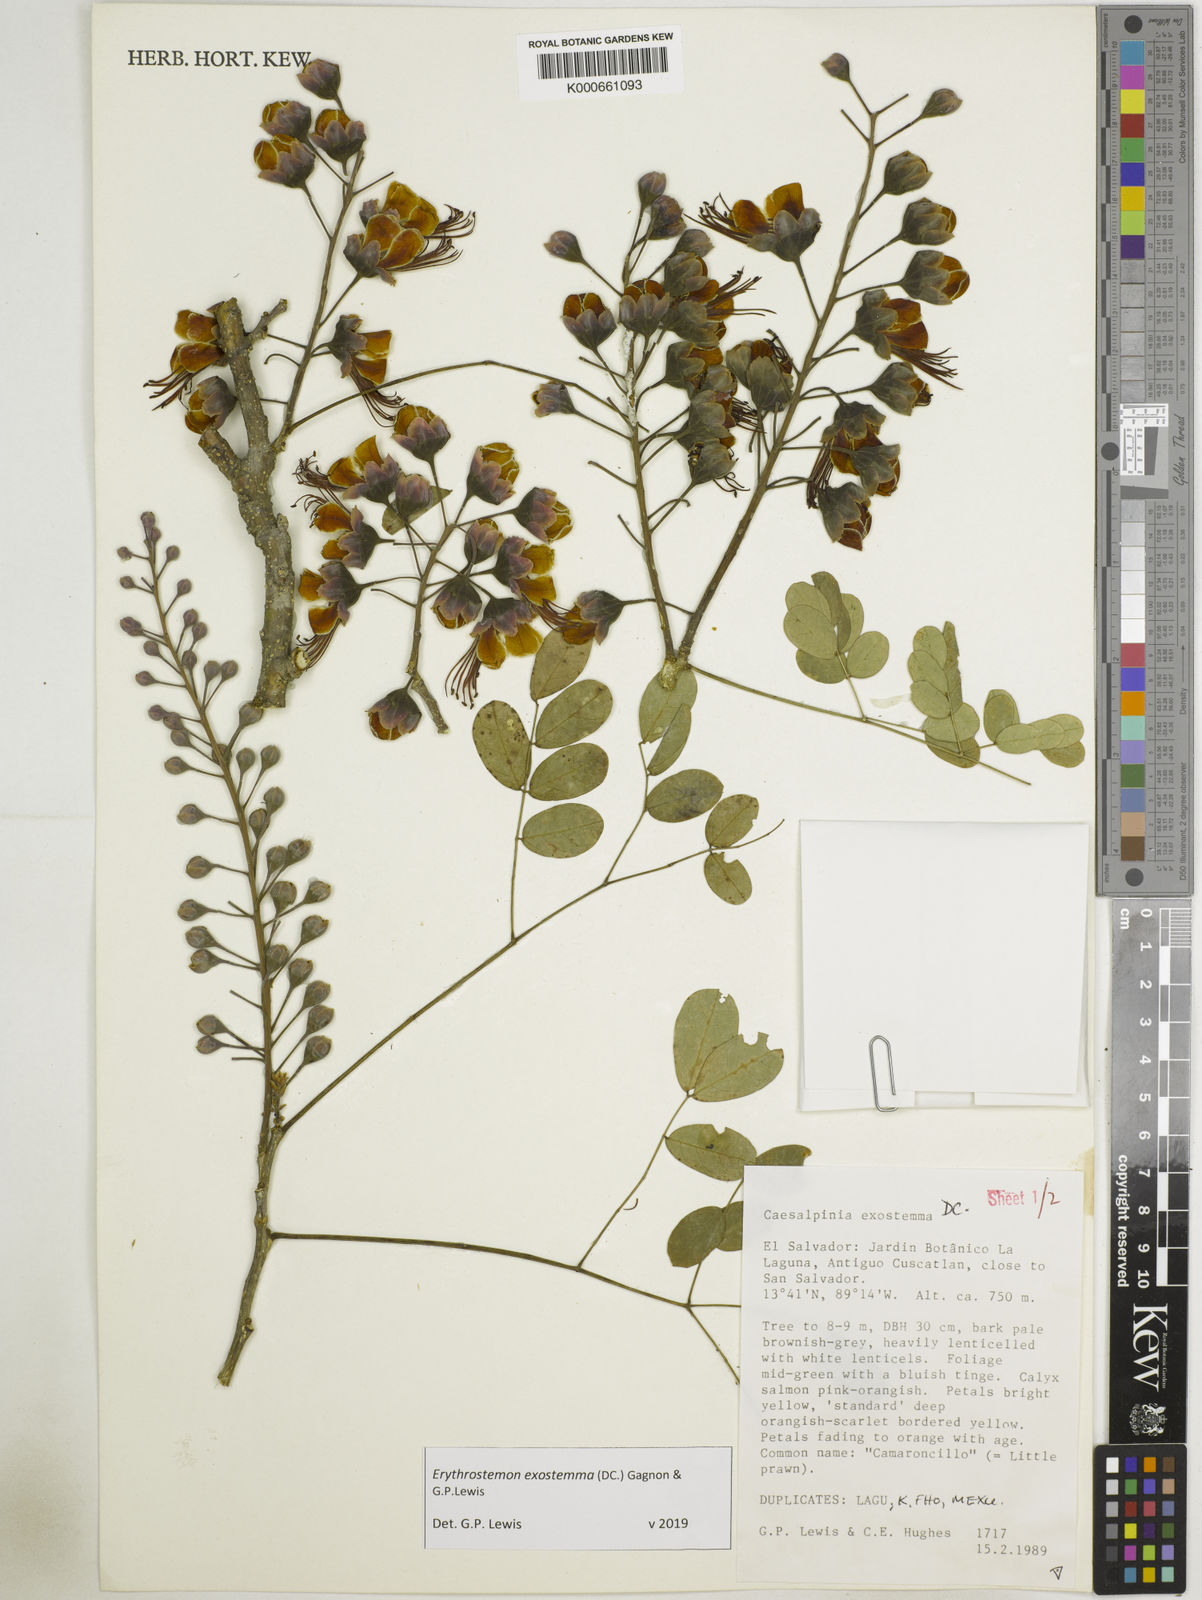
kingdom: Plantae
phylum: Tracheophyta
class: Magnoliopsida
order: Fabales
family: Fabaceae
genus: Erythrostemon
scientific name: Erythrostemon exostemma
